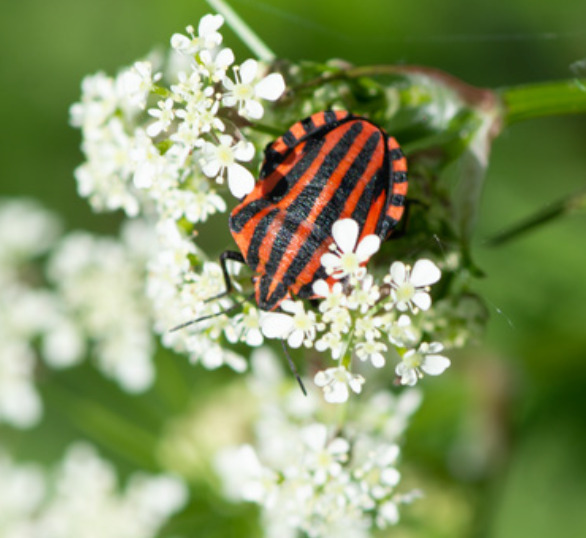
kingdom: Animalia
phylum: Arthropoda
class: Insecta
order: Hemiptera
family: Pentatomidae
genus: Graphosoma
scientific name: Graphosoma italicum
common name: Stribetæge
